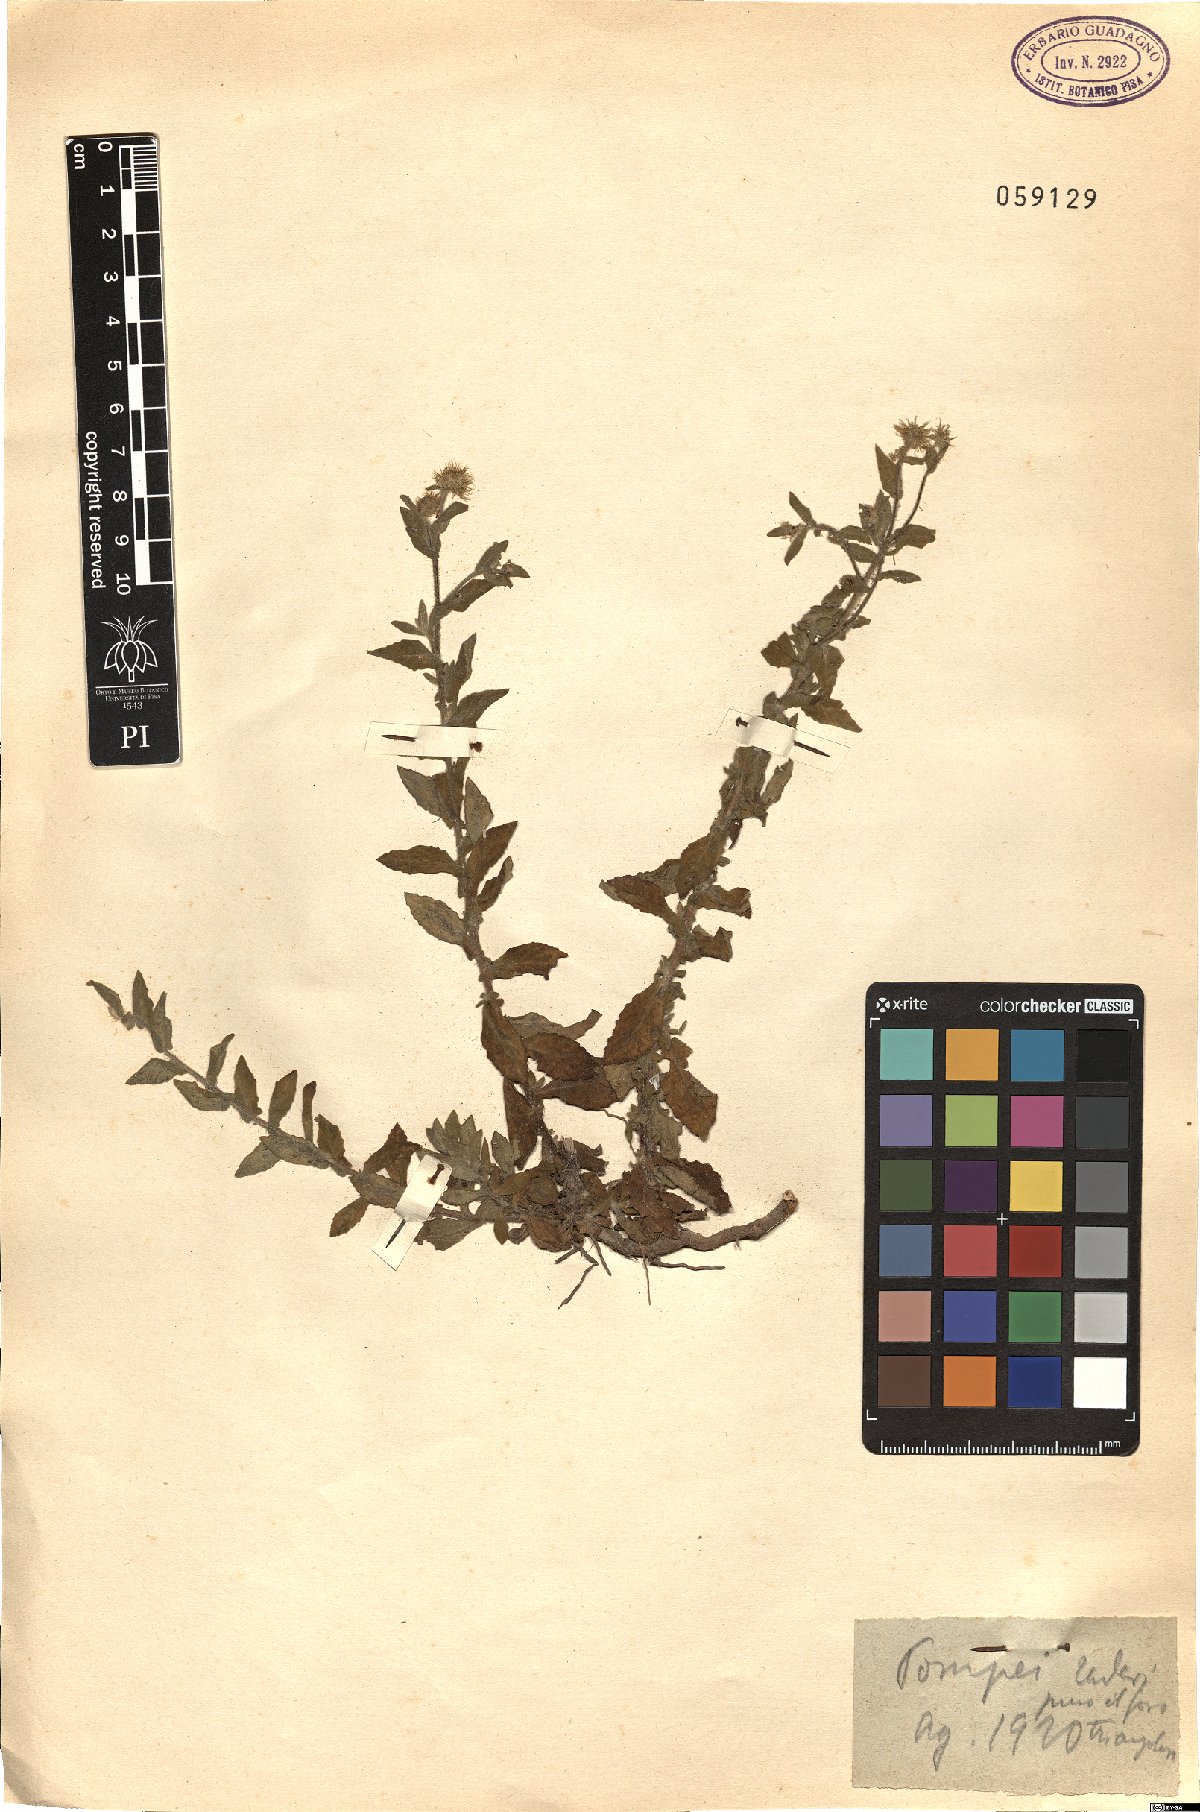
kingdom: Plantae
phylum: Tracheophyta
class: Magnoliopsida
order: Asterales
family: Asteraceae
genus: Pulicaria
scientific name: Pulicaria dysenterica
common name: Common fleabane
